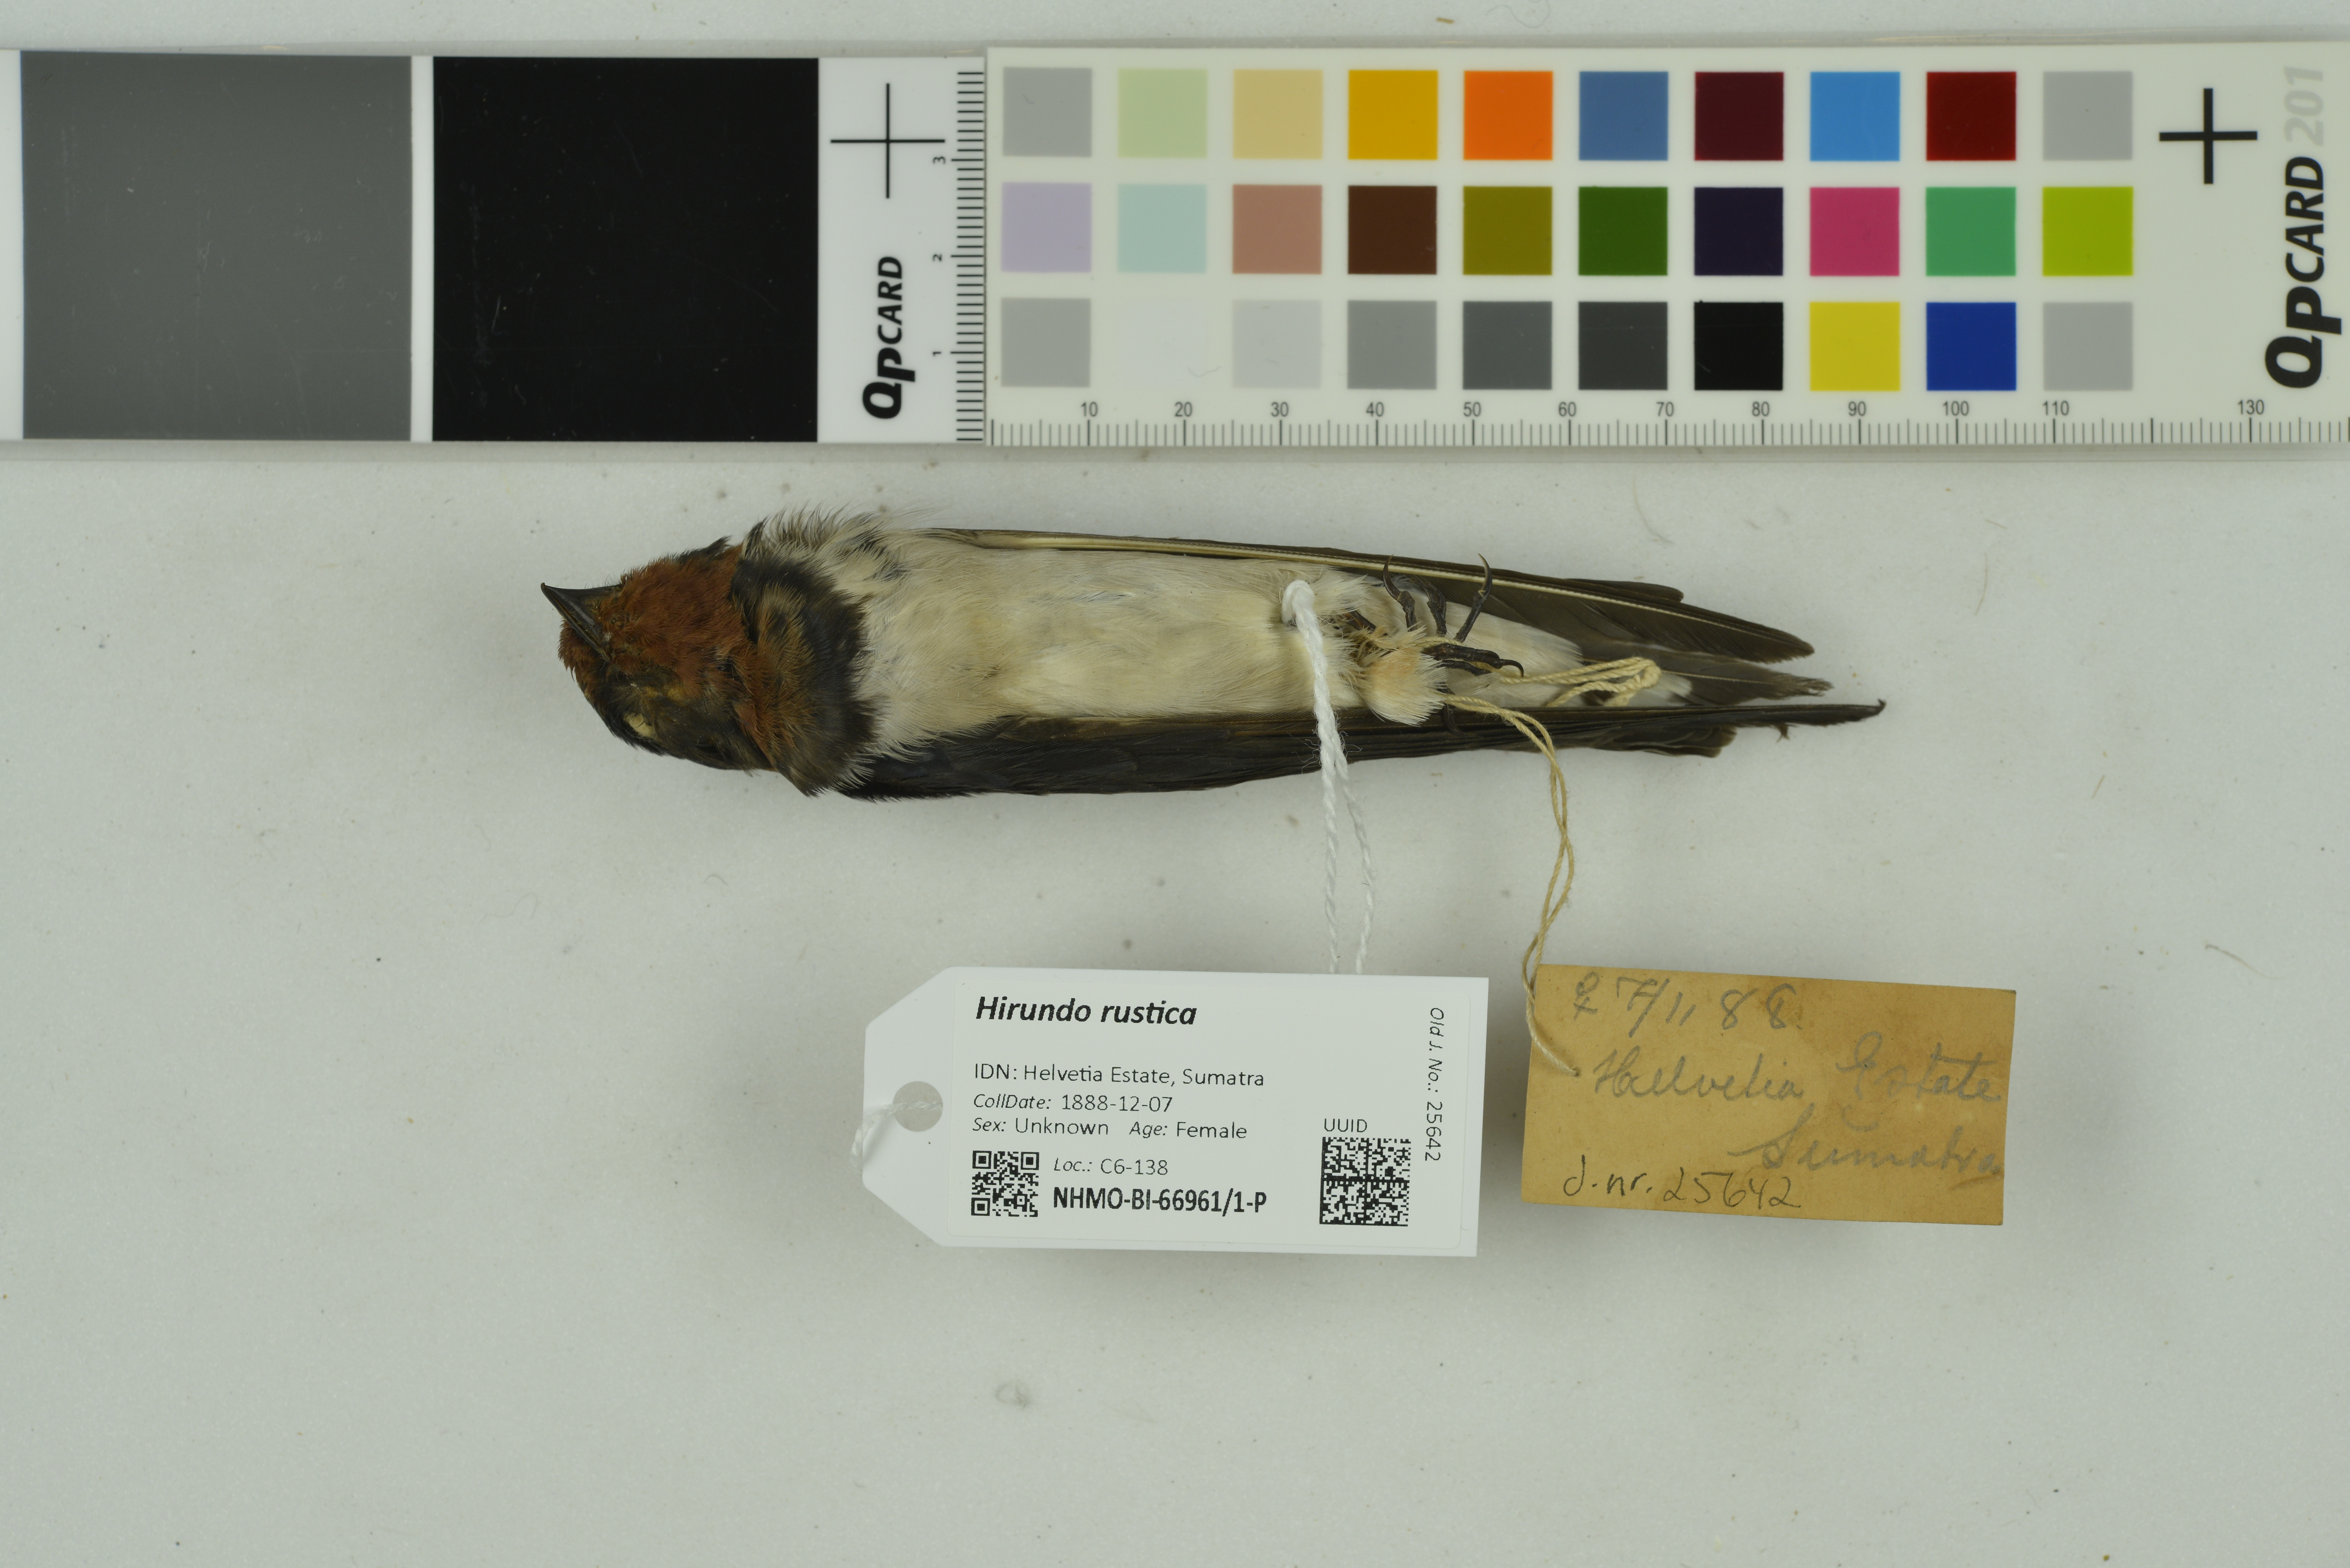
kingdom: Animalia
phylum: Chordata
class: Aves
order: Passeriformes
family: Hirundinidae
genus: Hirundo
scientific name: Hirundo rustica
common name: Barn swallow
